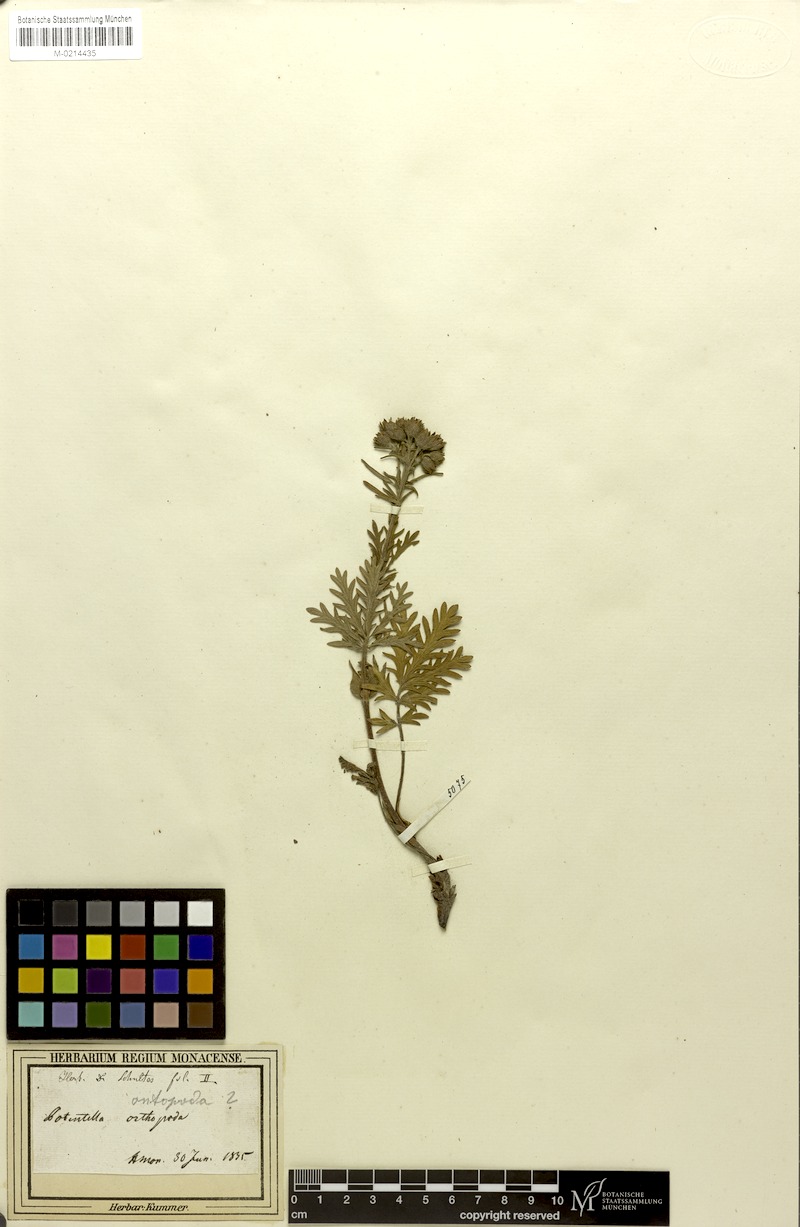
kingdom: Plantae
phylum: Tracheophyta
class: Magnoliopsida
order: Rosales
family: Rosaceae
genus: Potentilla
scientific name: Potentilla pensylvanica
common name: Pennsylvania cinquefoil
